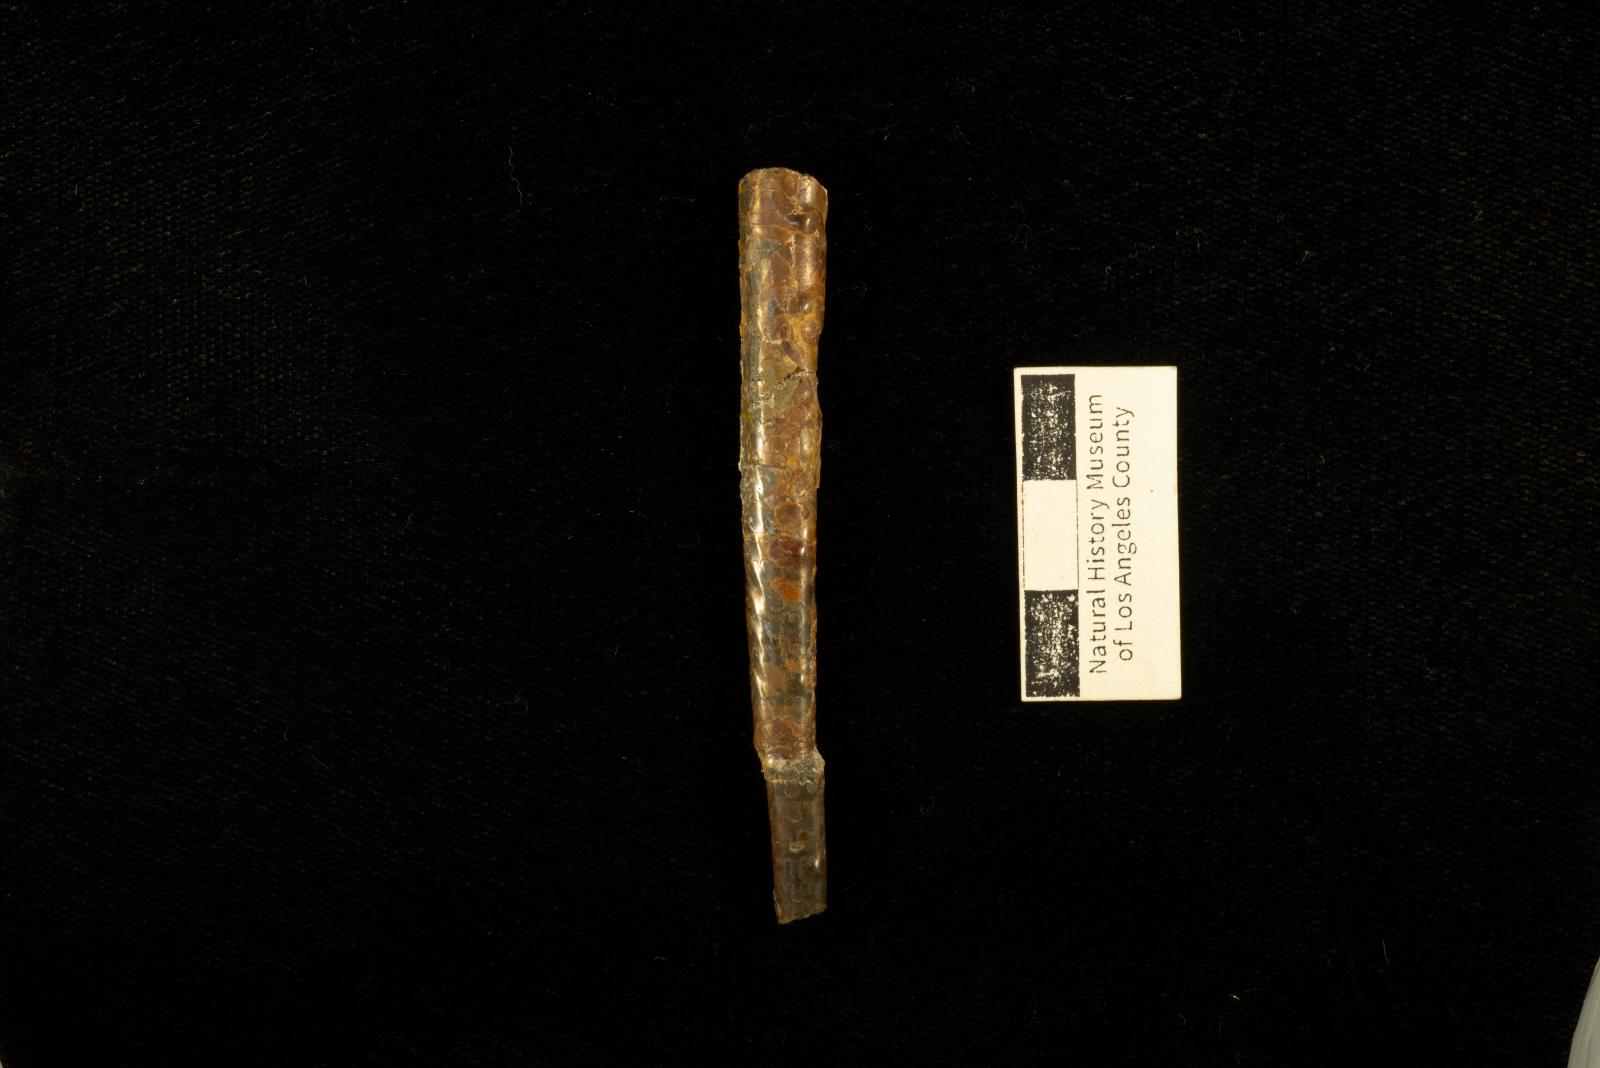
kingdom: Animalia
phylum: Mollusca
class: Cephalopoda
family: Baculitidae
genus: Baculites
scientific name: Baculites boulei
